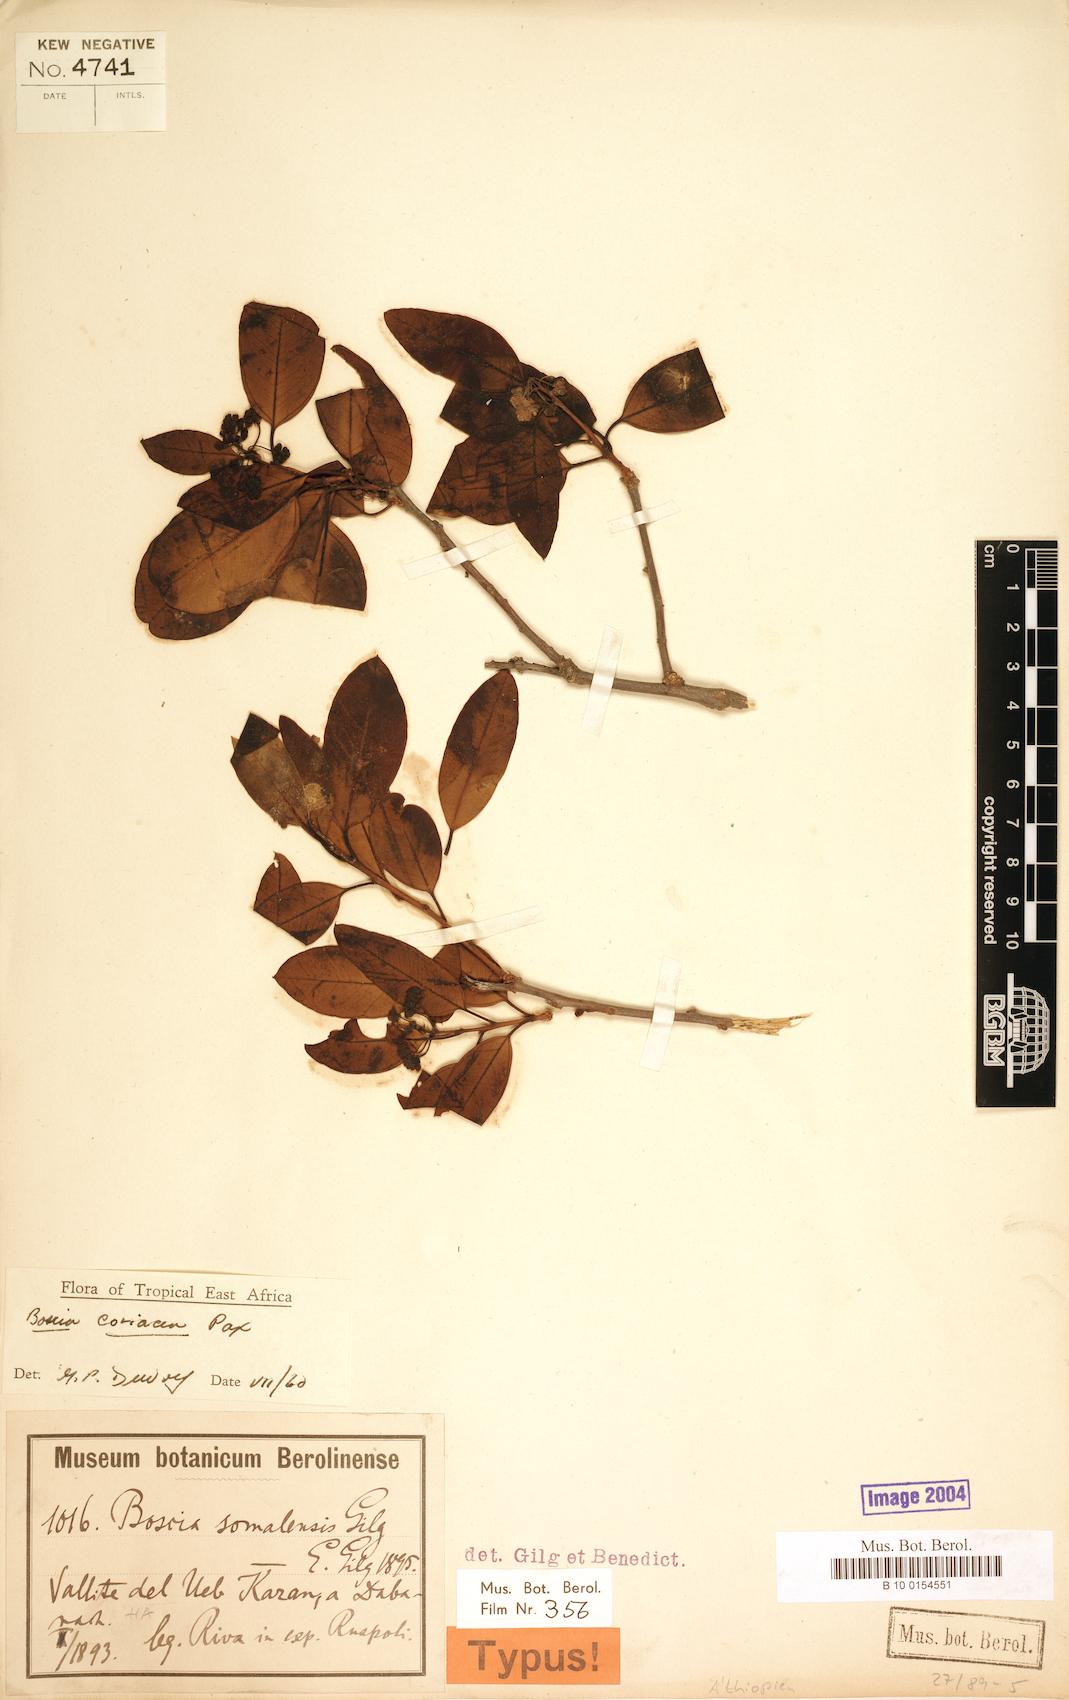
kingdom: Plantae
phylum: Tracheophyta
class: Magnoliopsida
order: Brassicales
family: Capparaceae
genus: Boscia
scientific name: Boscia coriacea
